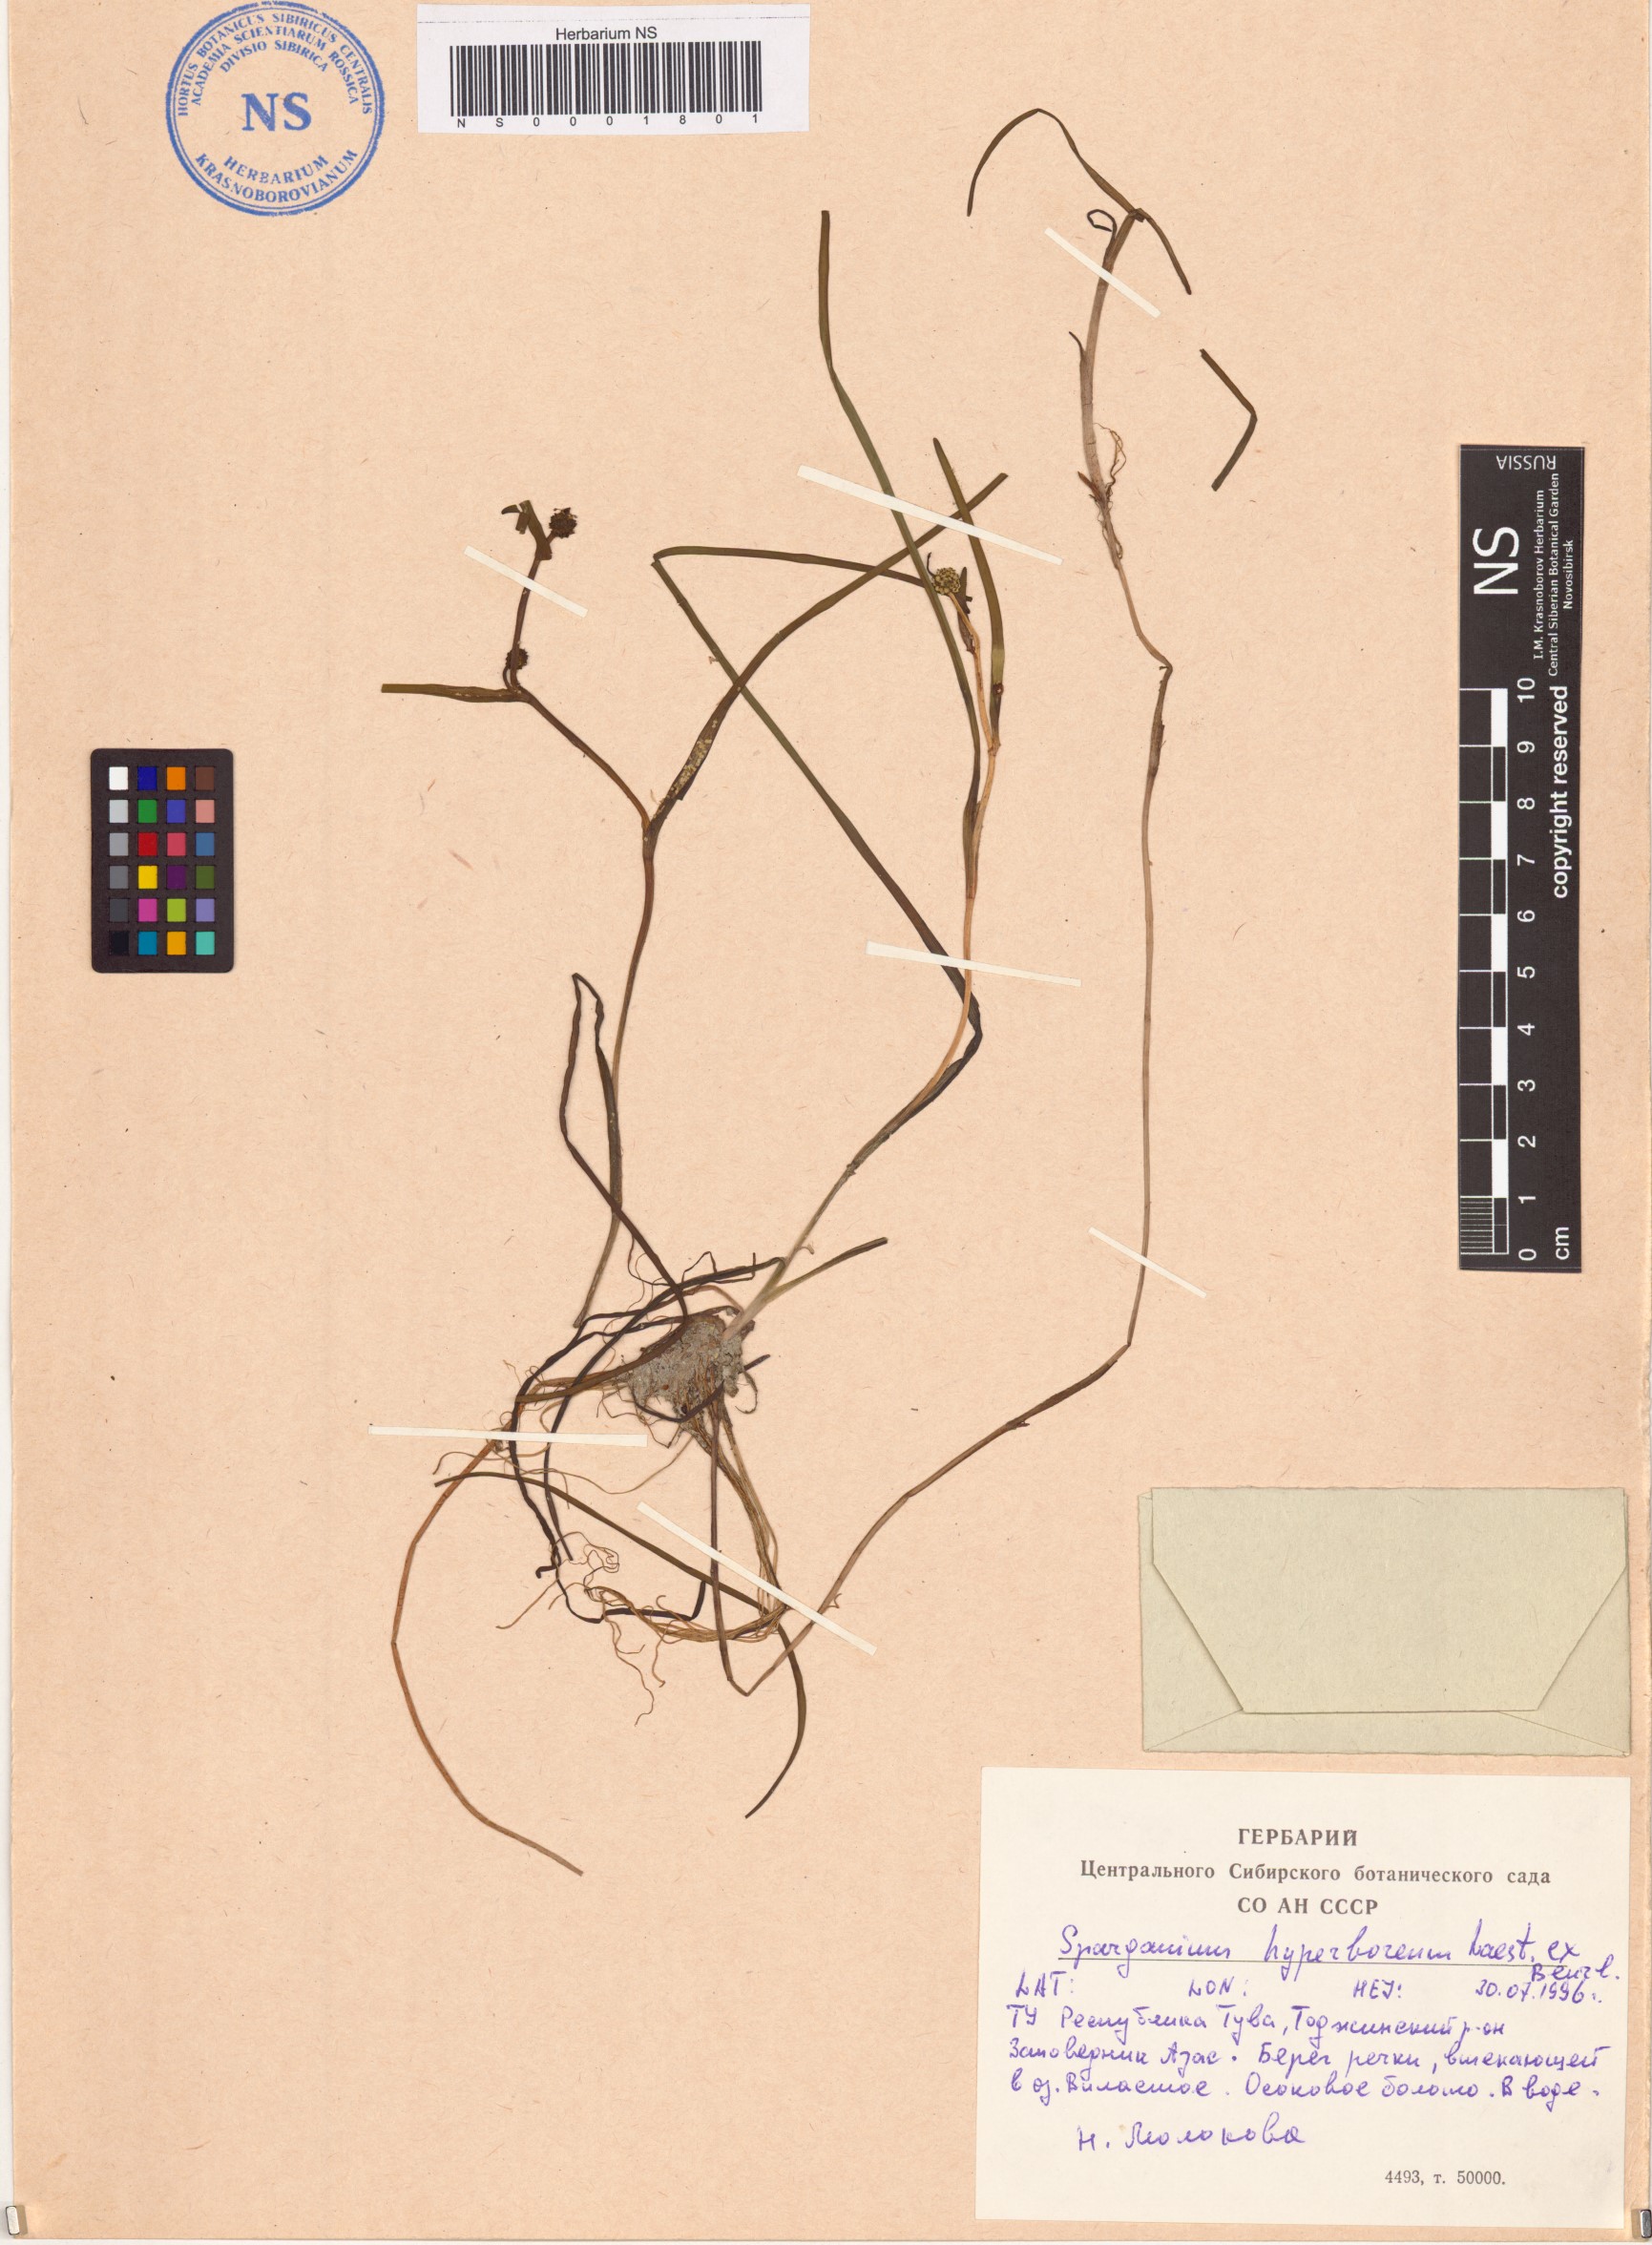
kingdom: Plantae
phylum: Tracheophyta
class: Liliopsida
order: Poales
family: Typhaceae
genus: Sparganium
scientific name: Sparganium hyperboreum
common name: Arctic burreed
